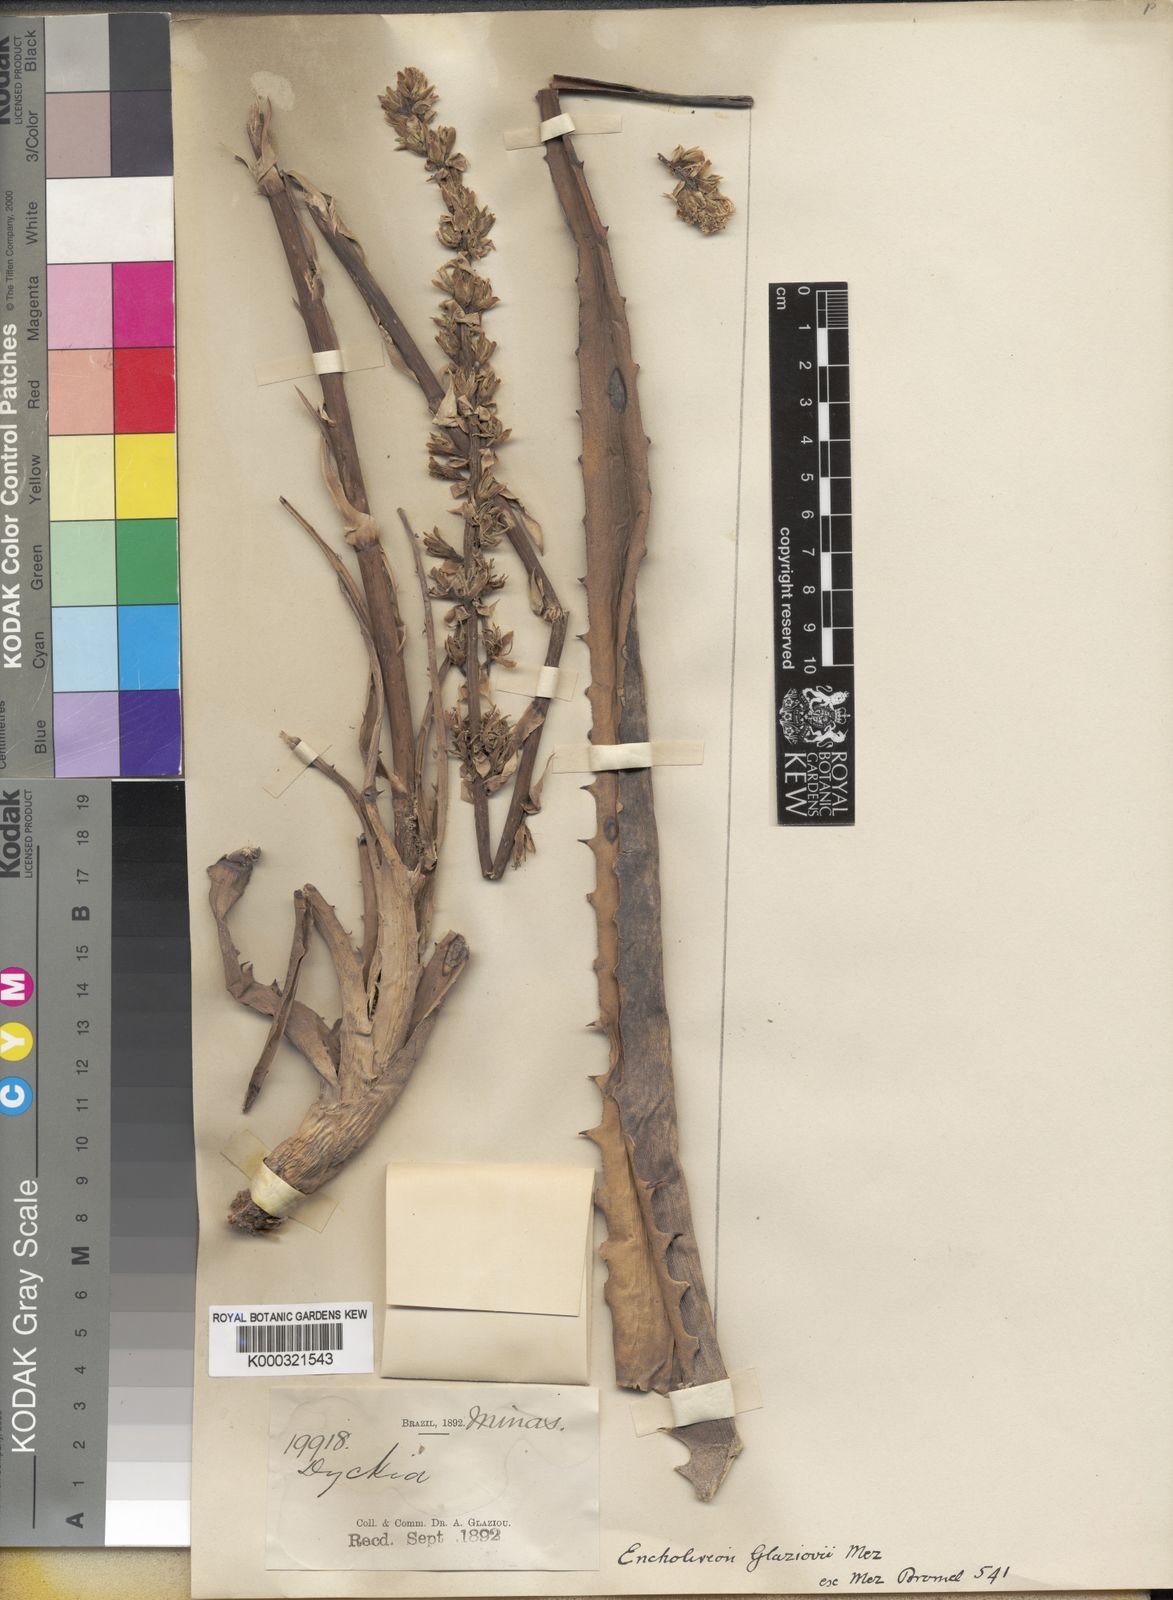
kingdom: Plantae
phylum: Tracheophyta
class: Liliopsida
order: Poales
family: Bromeliaceae
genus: Encholirium
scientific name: Encholirium subsecundum
